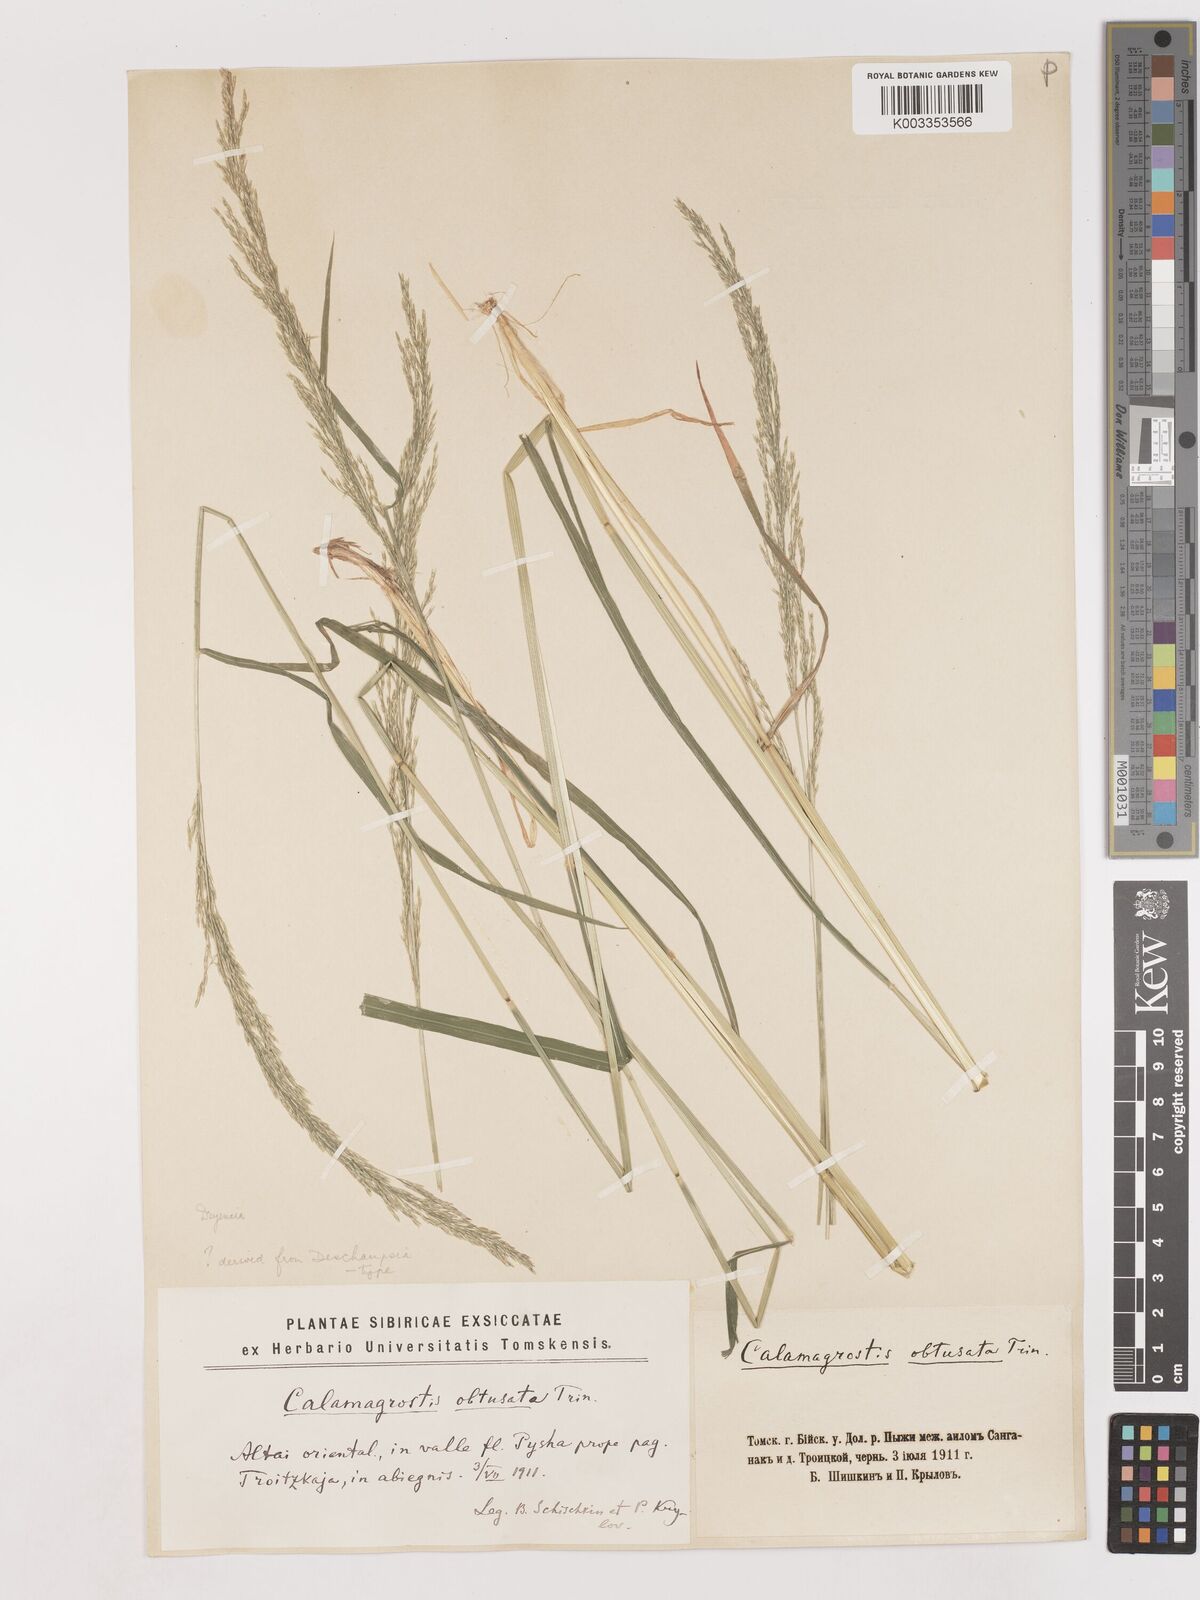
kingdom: Plantae
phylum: Tracheophyta
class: Liliopsida
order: Poales
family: Poaceae
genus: Cinnagrostis
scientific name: Cinnagrostis spicigera
